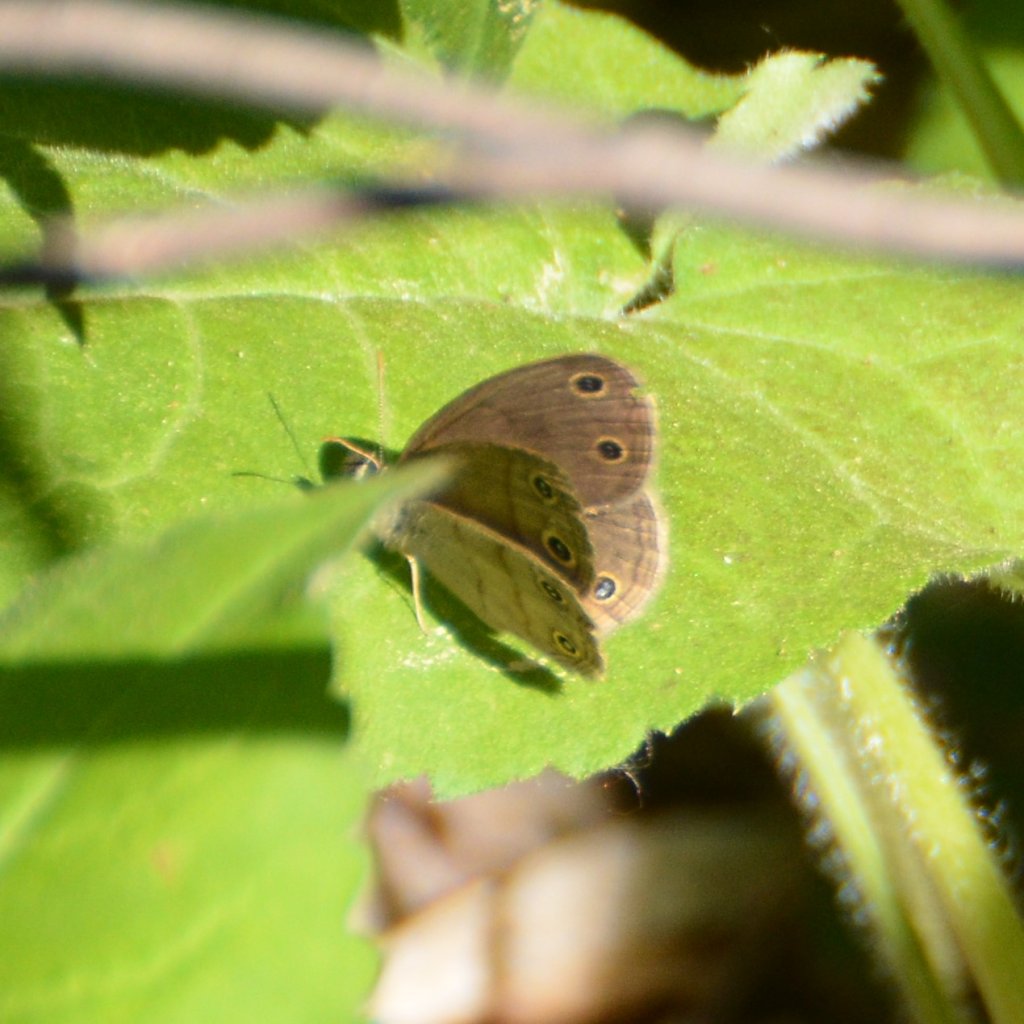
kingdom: Animalia
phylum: Arthropoda
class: Insecta
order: Lepidoptera
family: Nymphalidae
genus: Euptychia
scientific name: Euptychia cymela
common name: Little Wood Satyr
